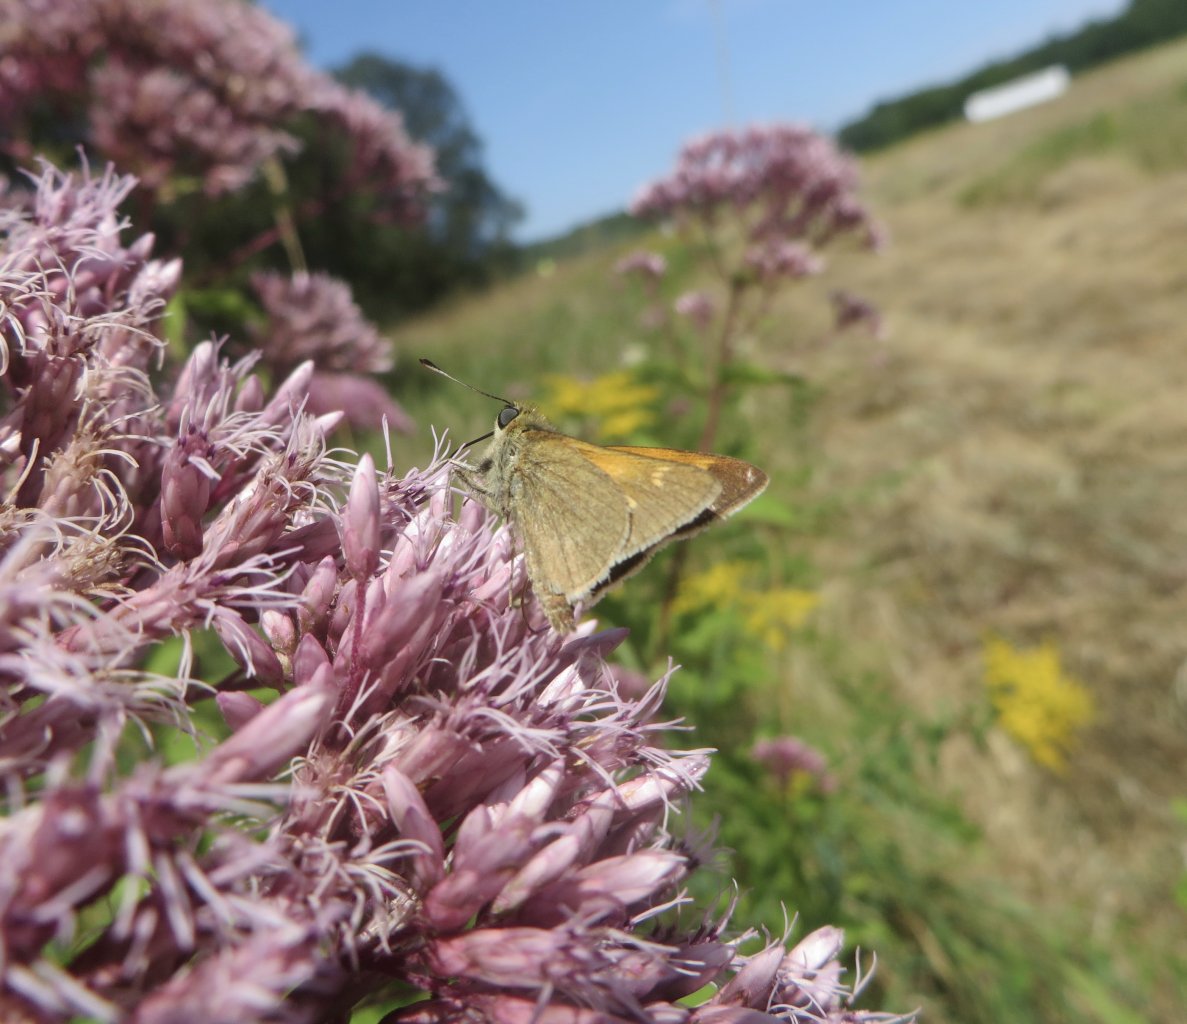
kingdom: Animalia
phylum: Arthropoda
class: Insecta
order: Lepidoptera
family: Hesperiidae
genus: Polites
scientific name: Polites themistocles
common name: Tawny-edged Skipper
